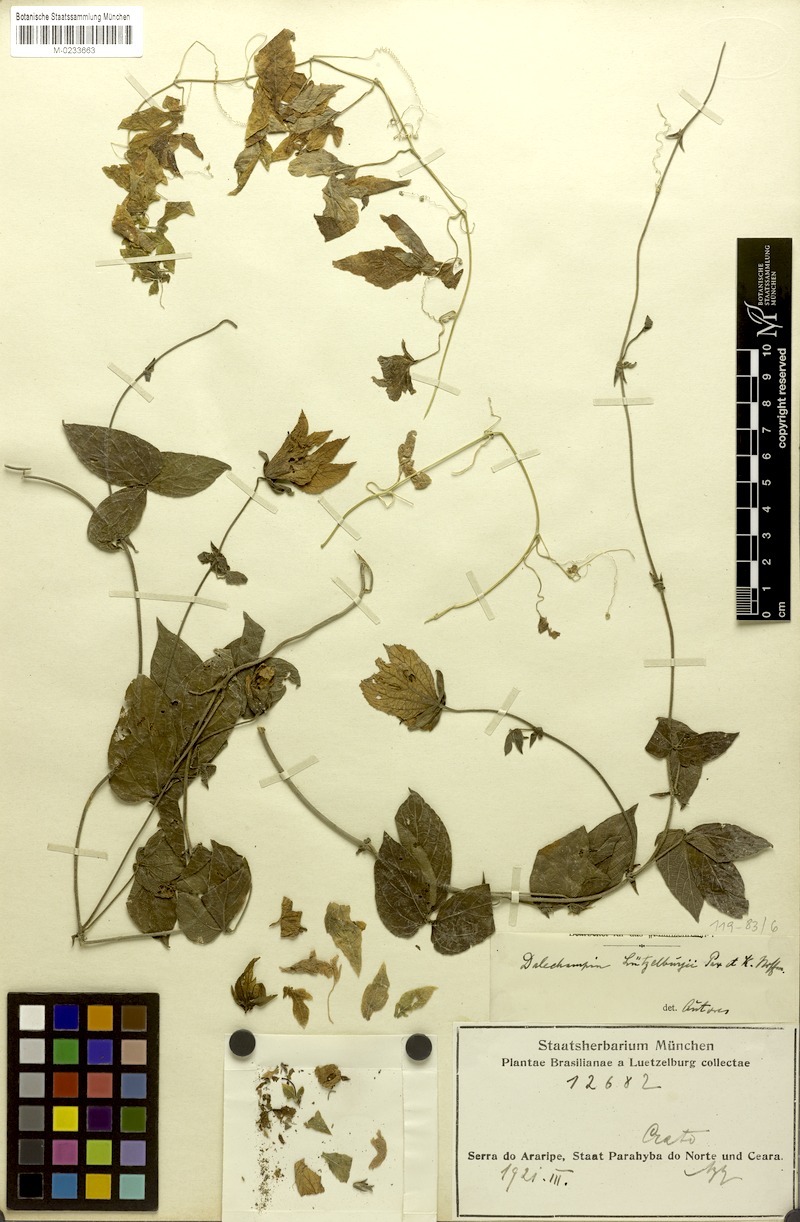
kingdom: Plantae
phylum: Tracheophyta
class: Magnoliopsida
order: Malpighiales
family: Euphorbiaceae
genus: Dalechampia
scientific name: Dalechampia luetzelburgii
